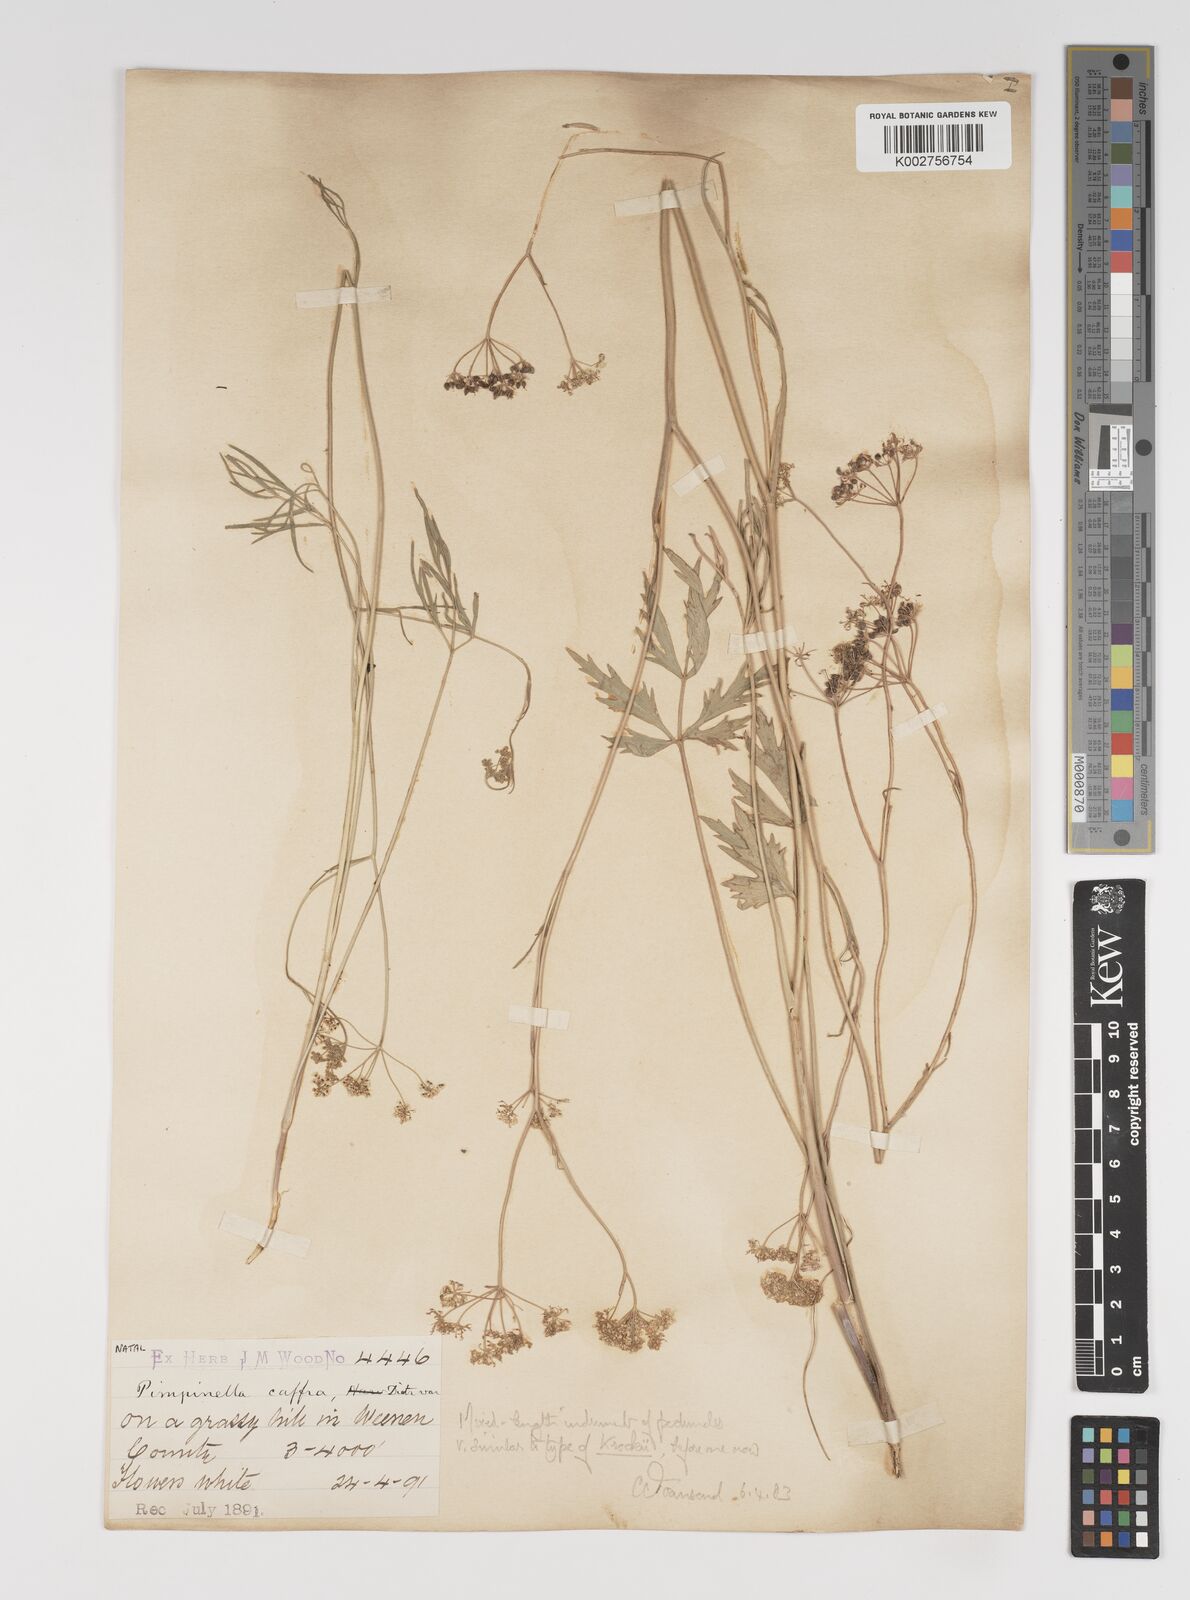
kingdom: Plantae
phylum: Tracheophyta
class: Magnoliopsida
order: Apiales
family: Apiaceae
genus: Pimpinella
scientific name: Pimpinella
